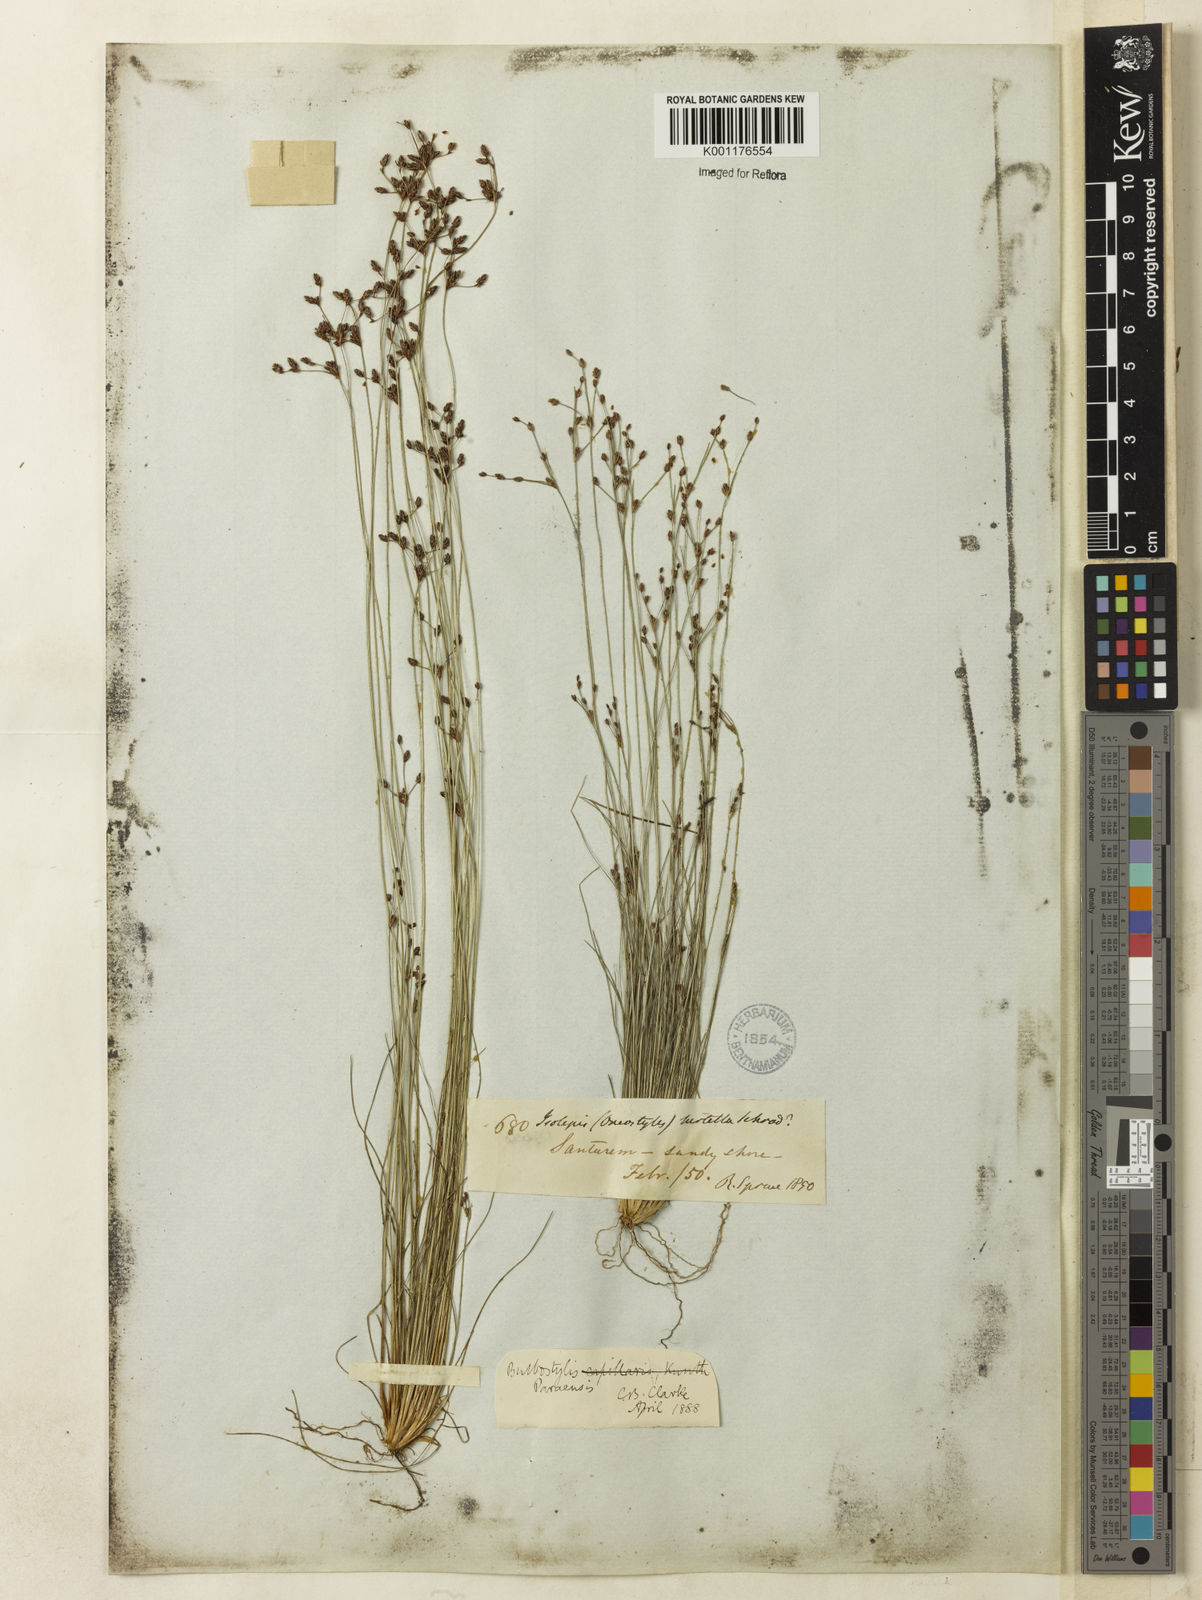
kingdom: Plantae
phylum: Tracheophyta
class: Liliopsida
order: Poales
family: Cyperaceae
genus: Bulbostylis
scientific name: Bulbostylis paraensis
